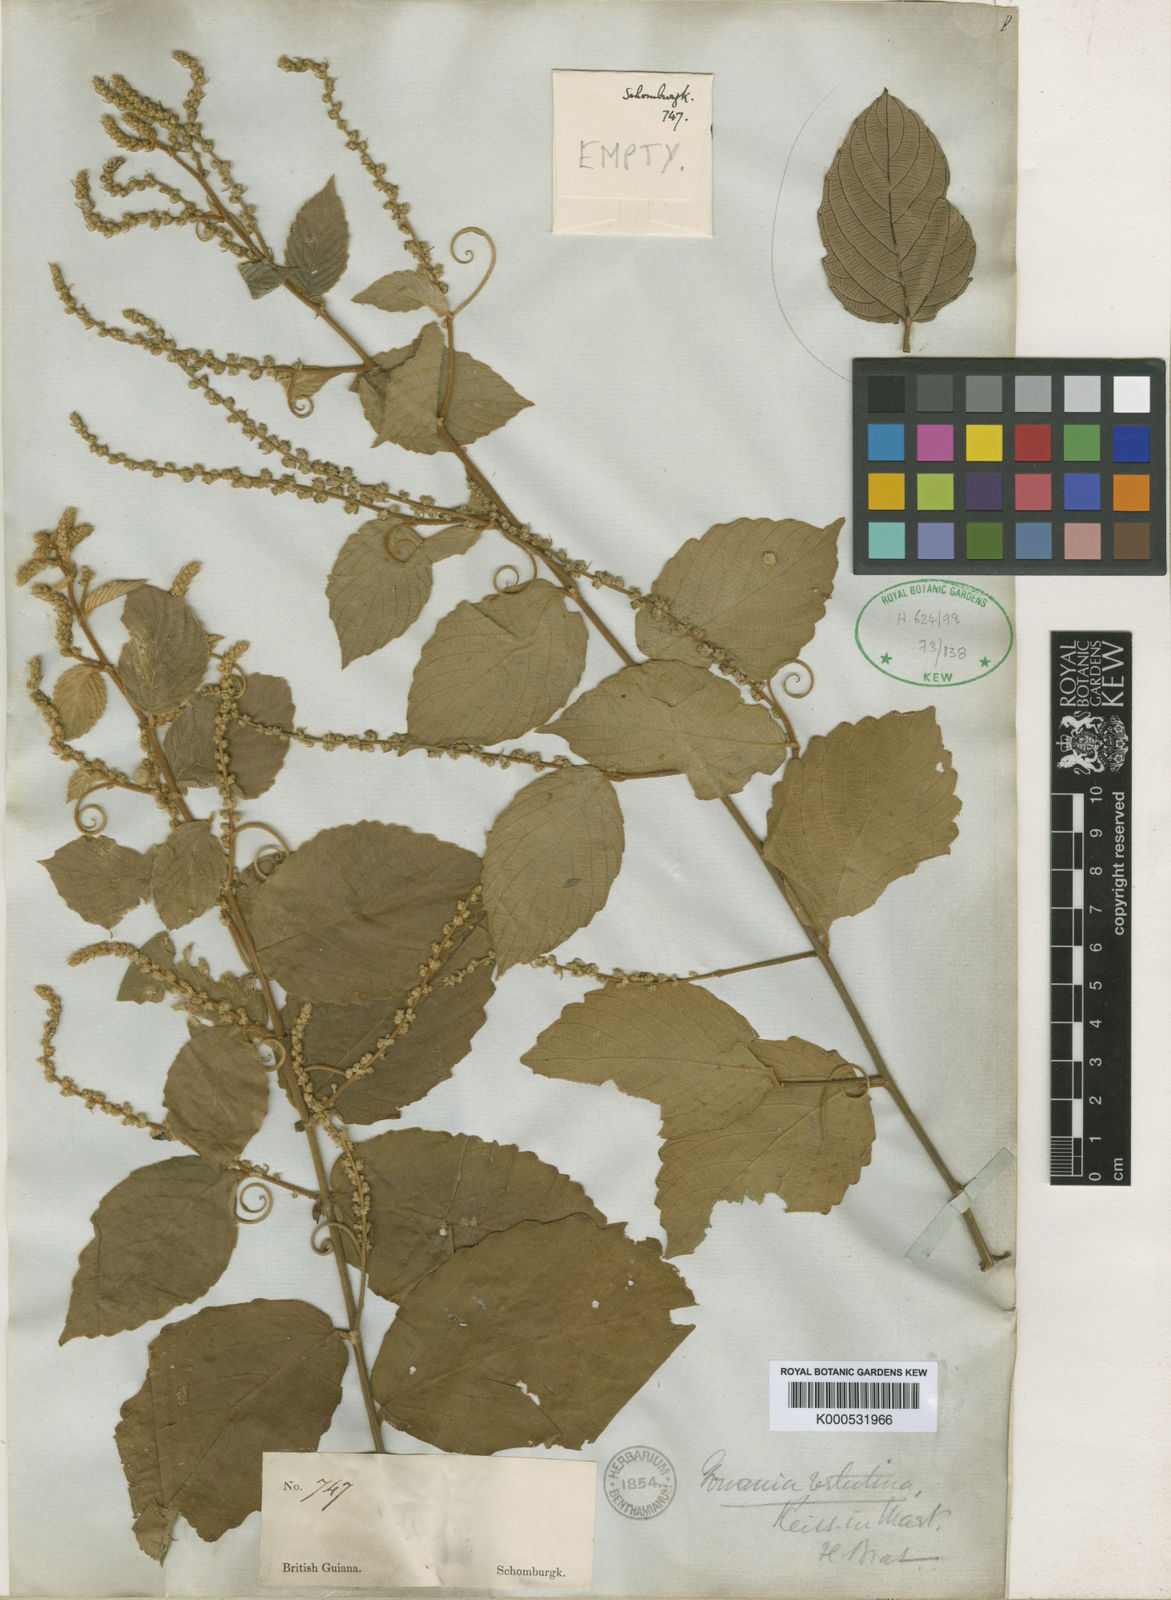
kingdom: Plantae
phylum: Tracheophyta
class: Magnoliopsida
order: Rosales
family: Rhamnaceae
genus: Gouania
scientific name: Gouania velutina
